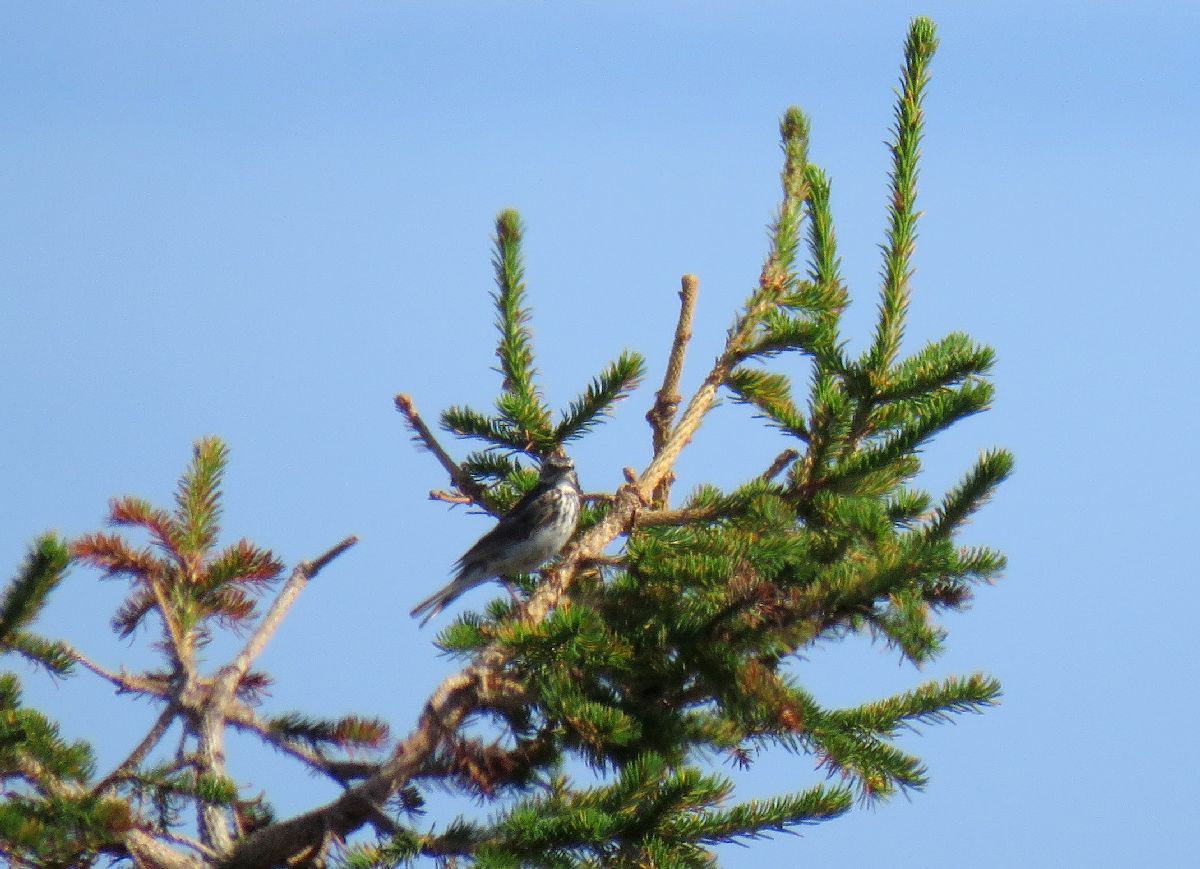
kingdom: Animalia
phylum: Chordata
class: Aves
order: Passeriformes
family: Motacillidae
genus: Anthus
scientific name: Anthus pratensis
